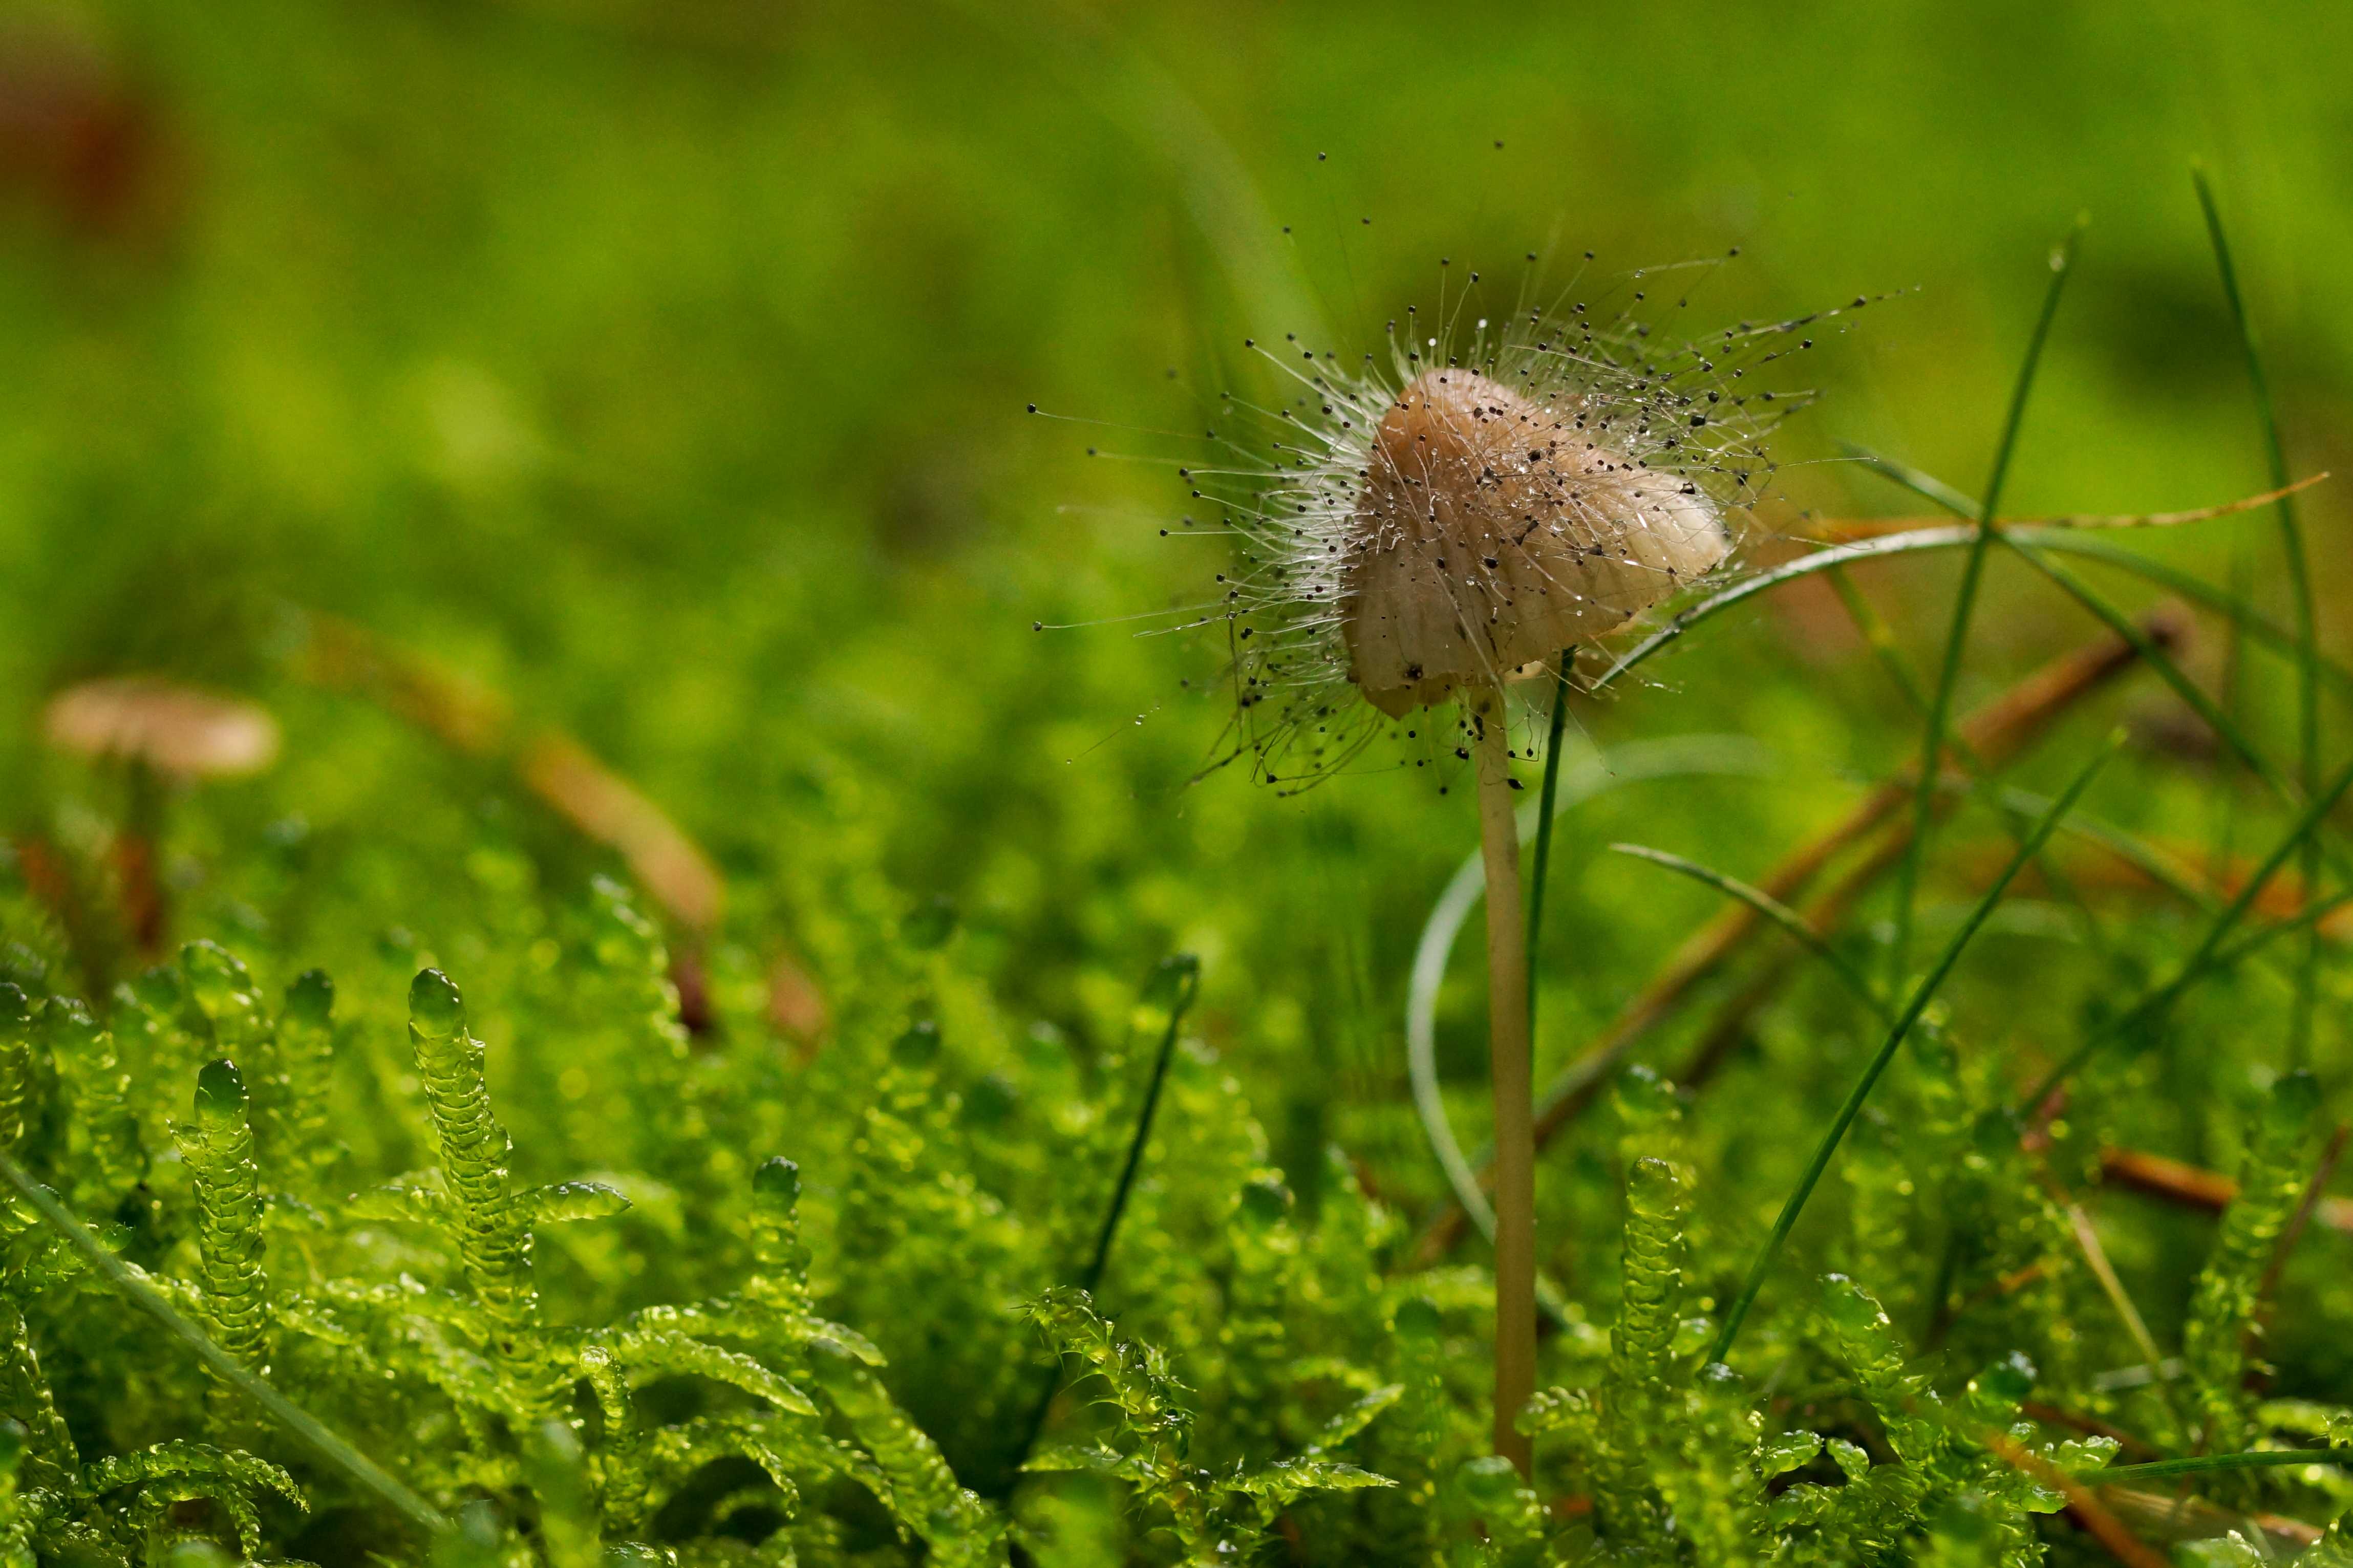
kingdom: Fungi
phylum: Mucoromycota
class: Mucoromycetes
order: Mucorales
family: Phycomycetaceae
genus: Spinellus
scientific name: Spinellus fusiger
